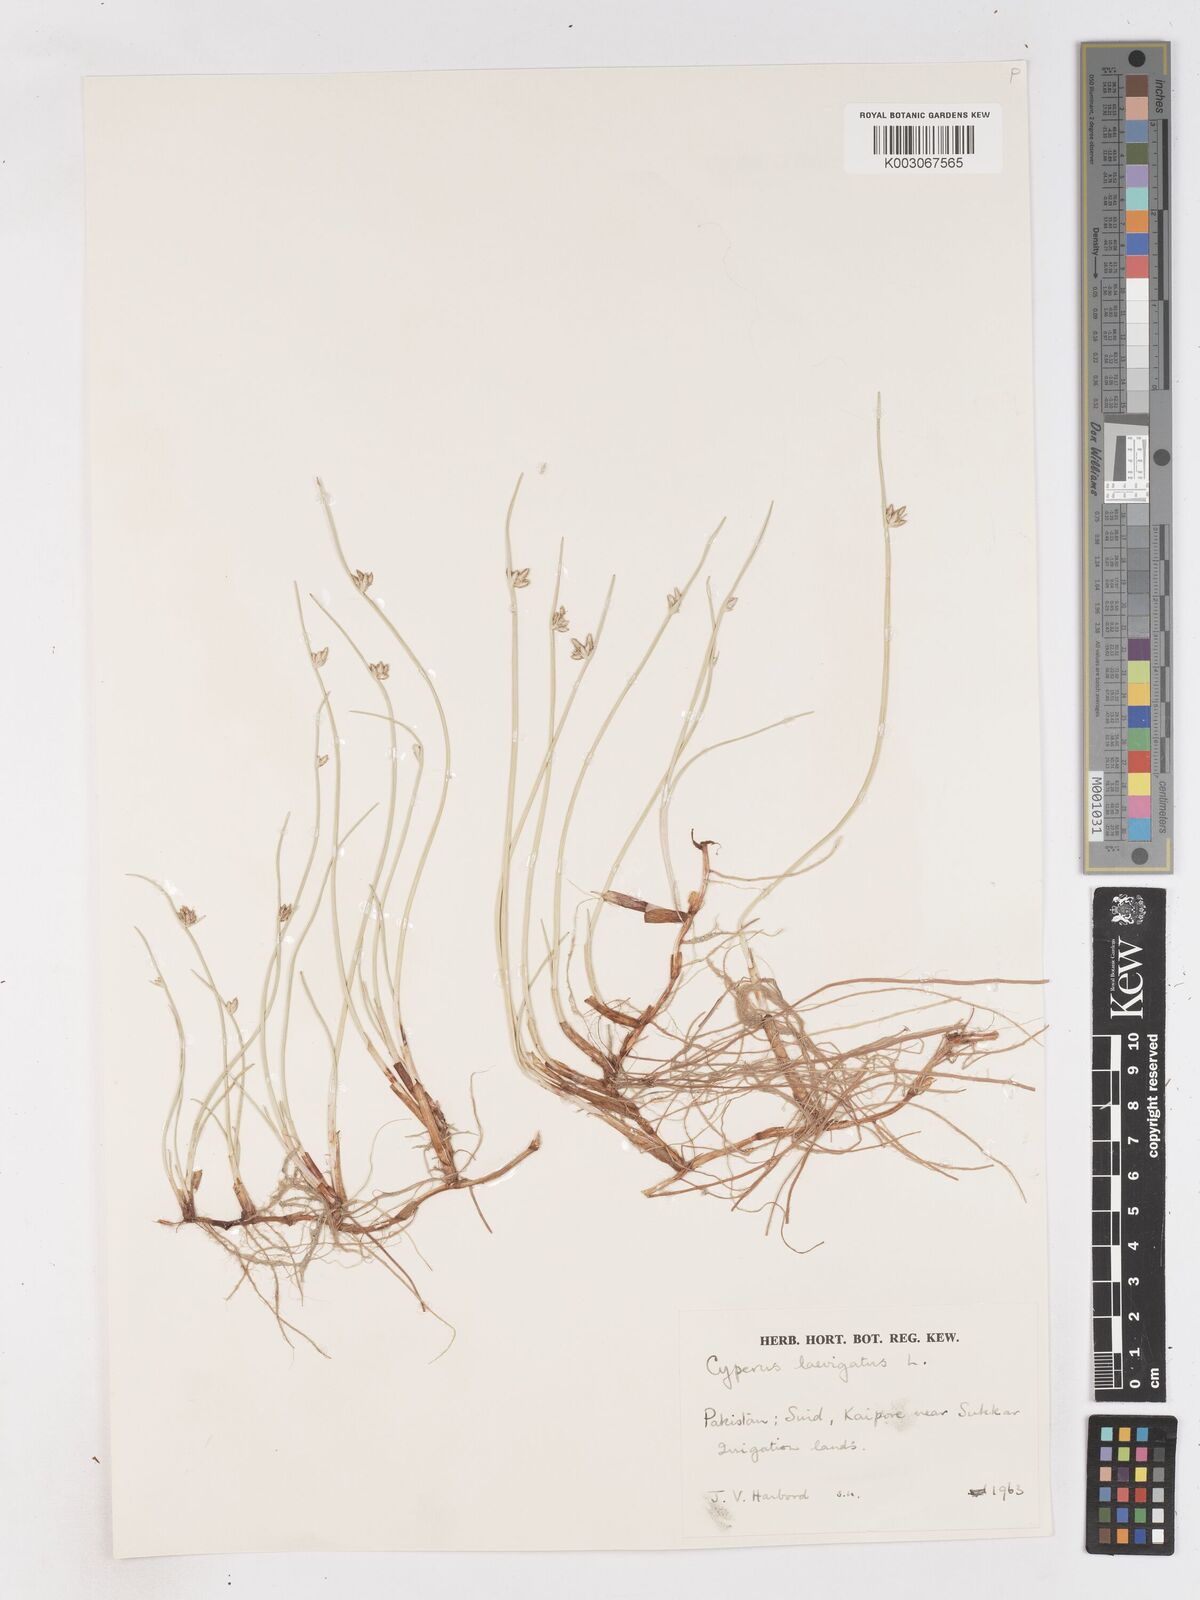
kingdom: Plantae
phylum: Tracheophyta
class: Liliopsida
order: Poales
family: Cyperaceae
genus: Cyperus
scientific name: Cyperus laevigatus
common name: Smooth flat sedge
